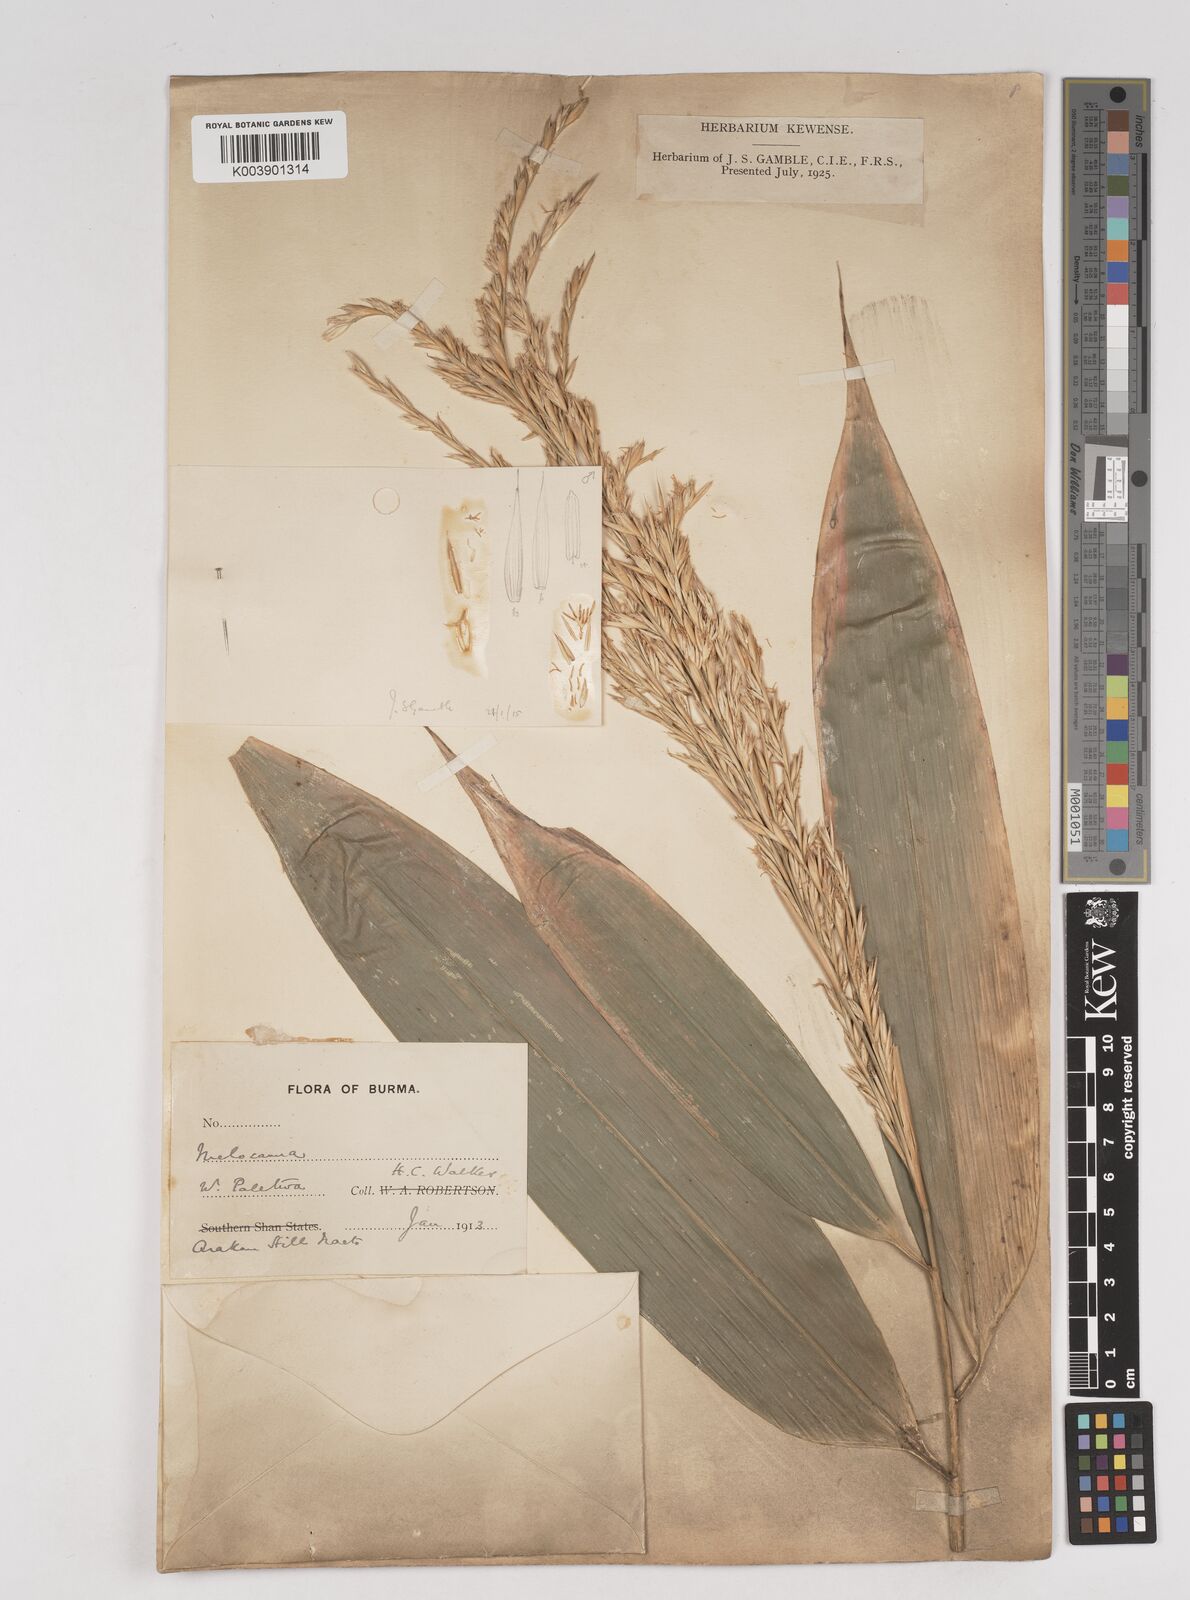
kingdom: Plantae
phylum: Tracheophyta
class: Liliopsida
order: Poales
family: Poaceae
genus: Melocanna
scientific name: Melocanna
